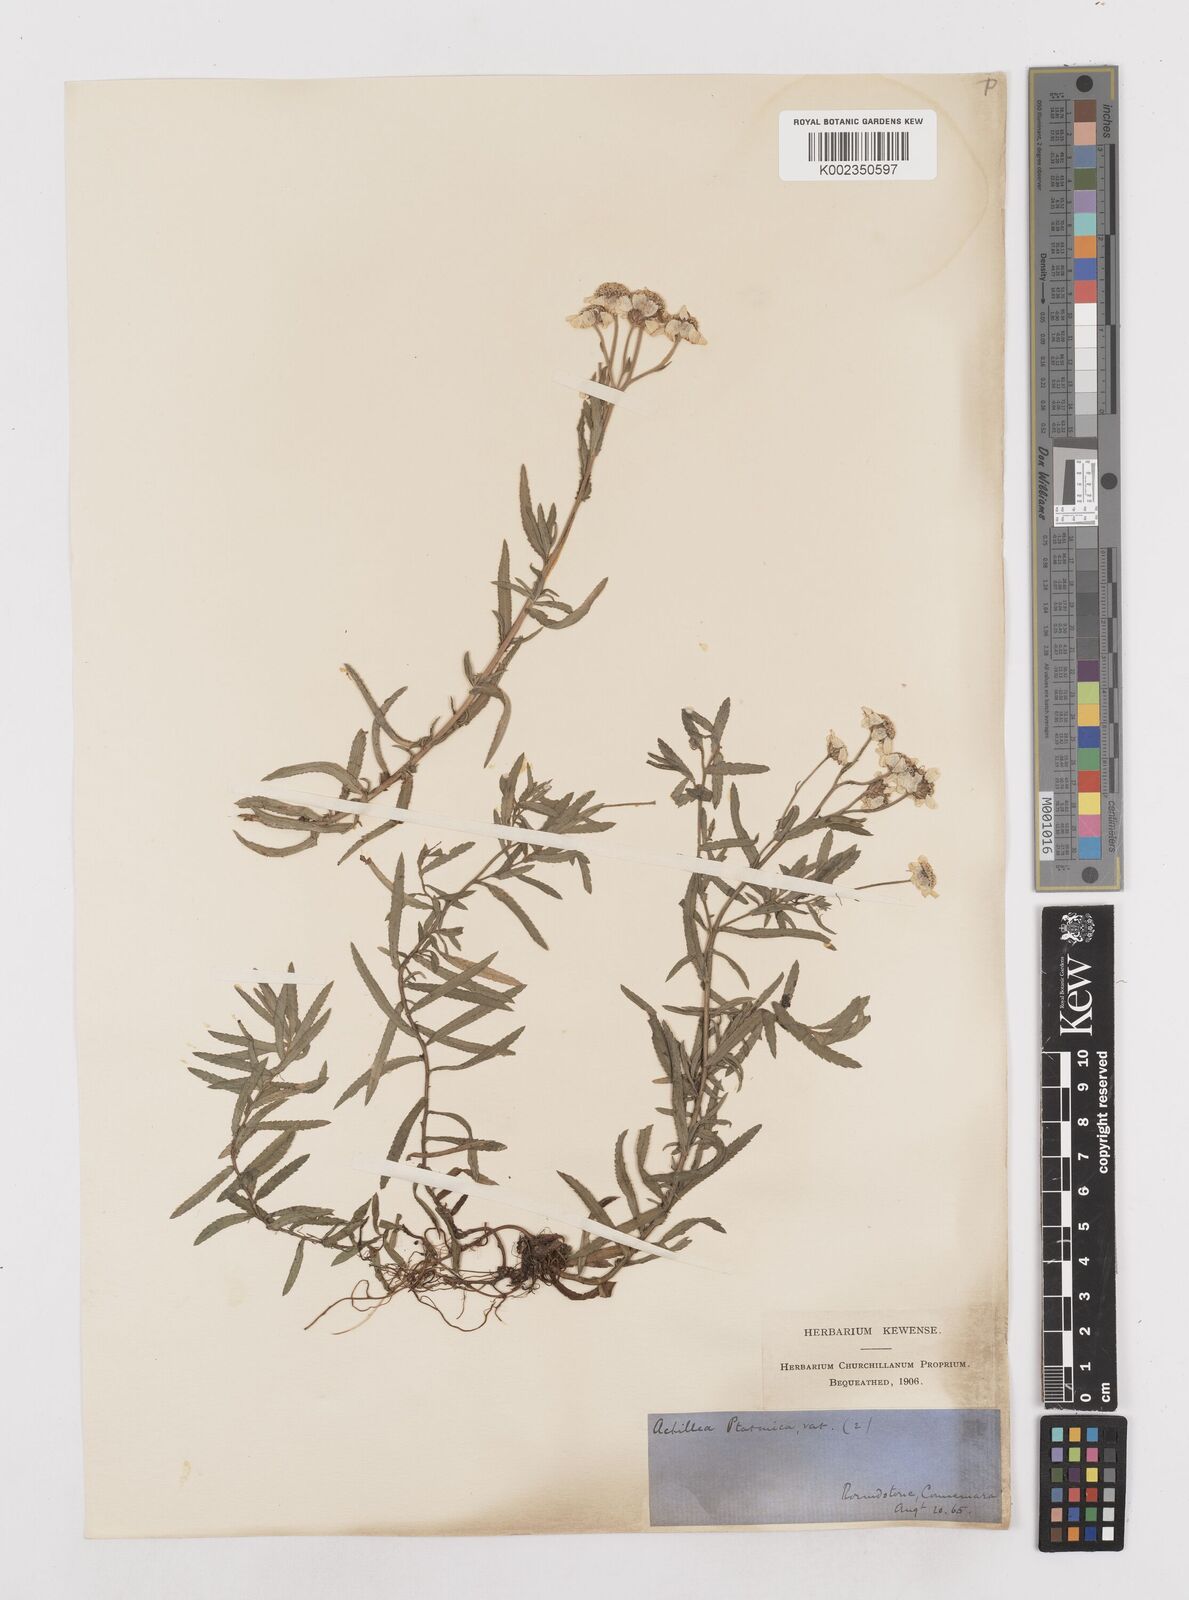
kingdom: Plantae
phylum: Tracheophyta
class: Magnoliopsida
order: Asterales
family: Asteraceae
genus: Achillea
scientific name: Achillea
